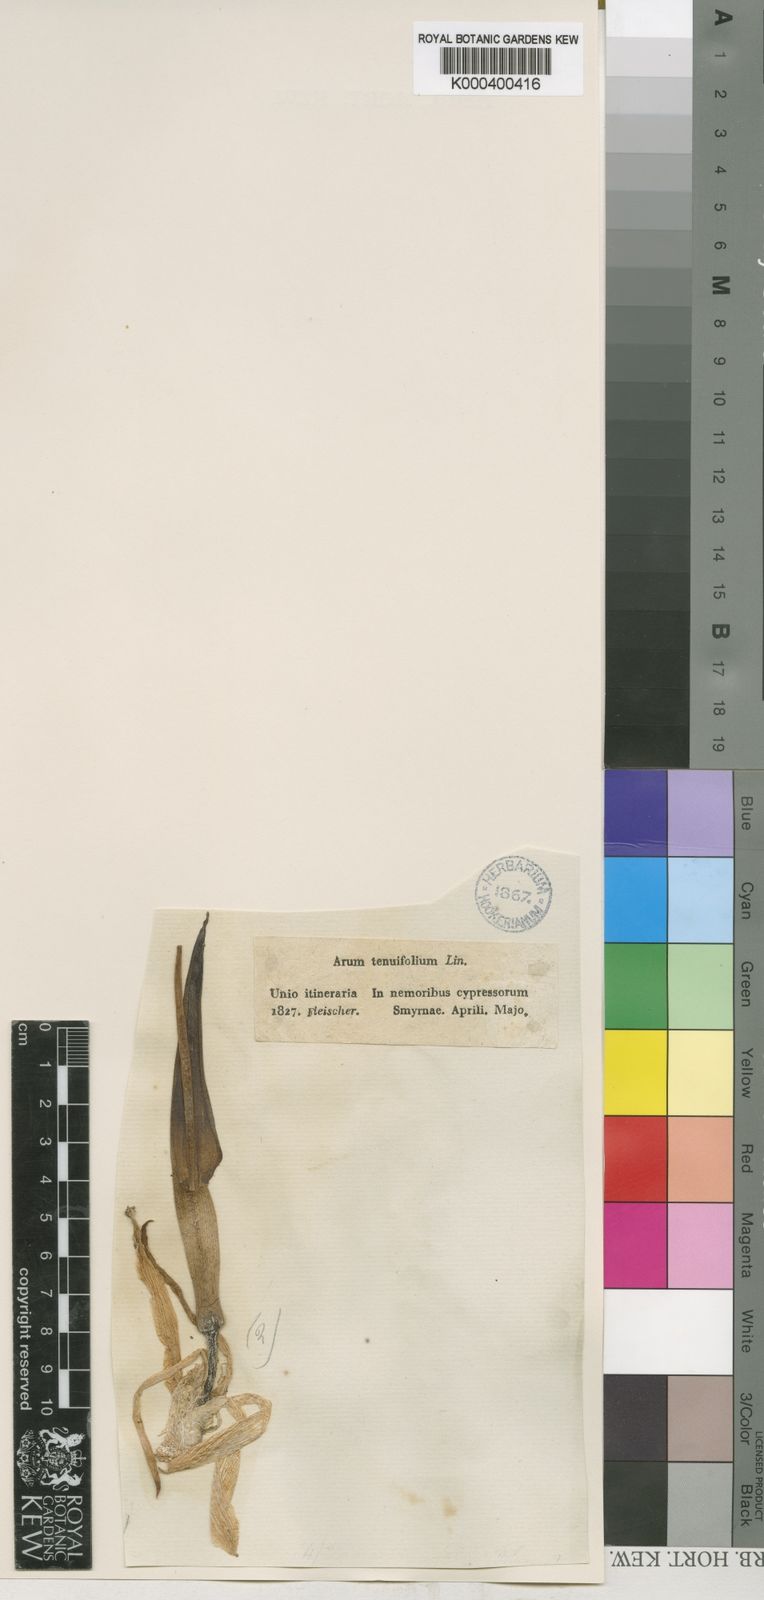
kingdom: Plantae
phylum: Tracheophyta
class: Liliopsida
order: Alismatales
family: Araceae
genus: Biarum
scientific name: Biarum tenuifolium
